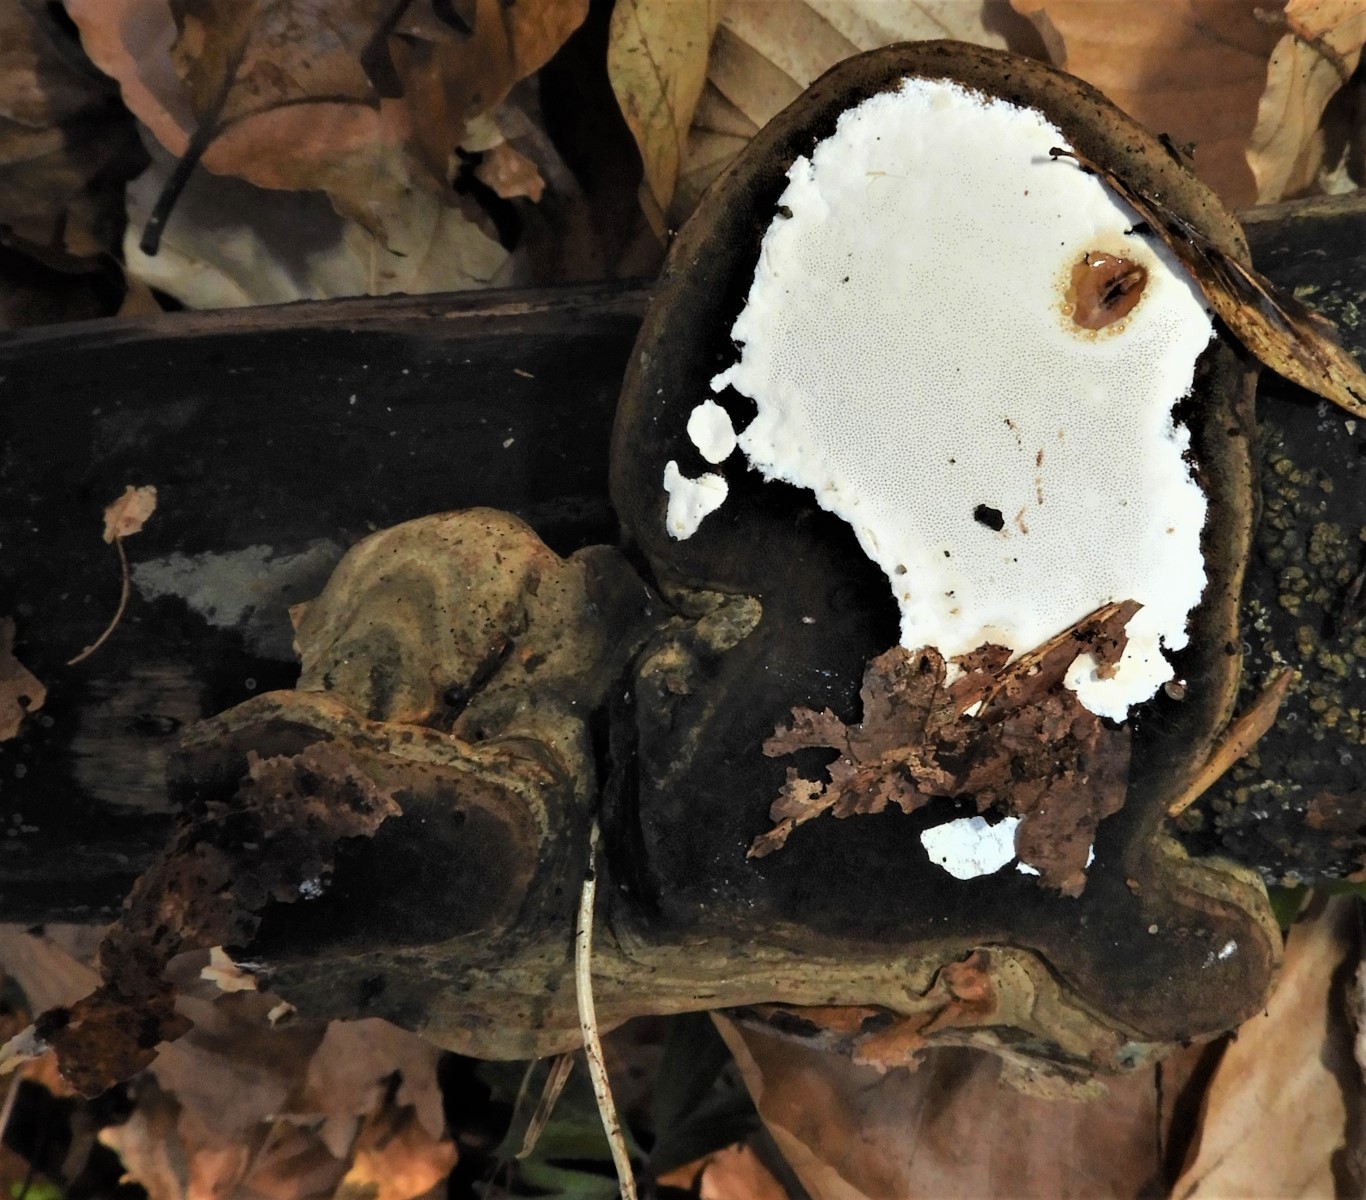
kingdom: Fungi
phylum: Basidiomycota
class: Agaricomycetes
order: Polyporales
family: Polyporaceae
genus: Fomes
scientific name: Fomes fomentarius
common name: tøndersvamp
